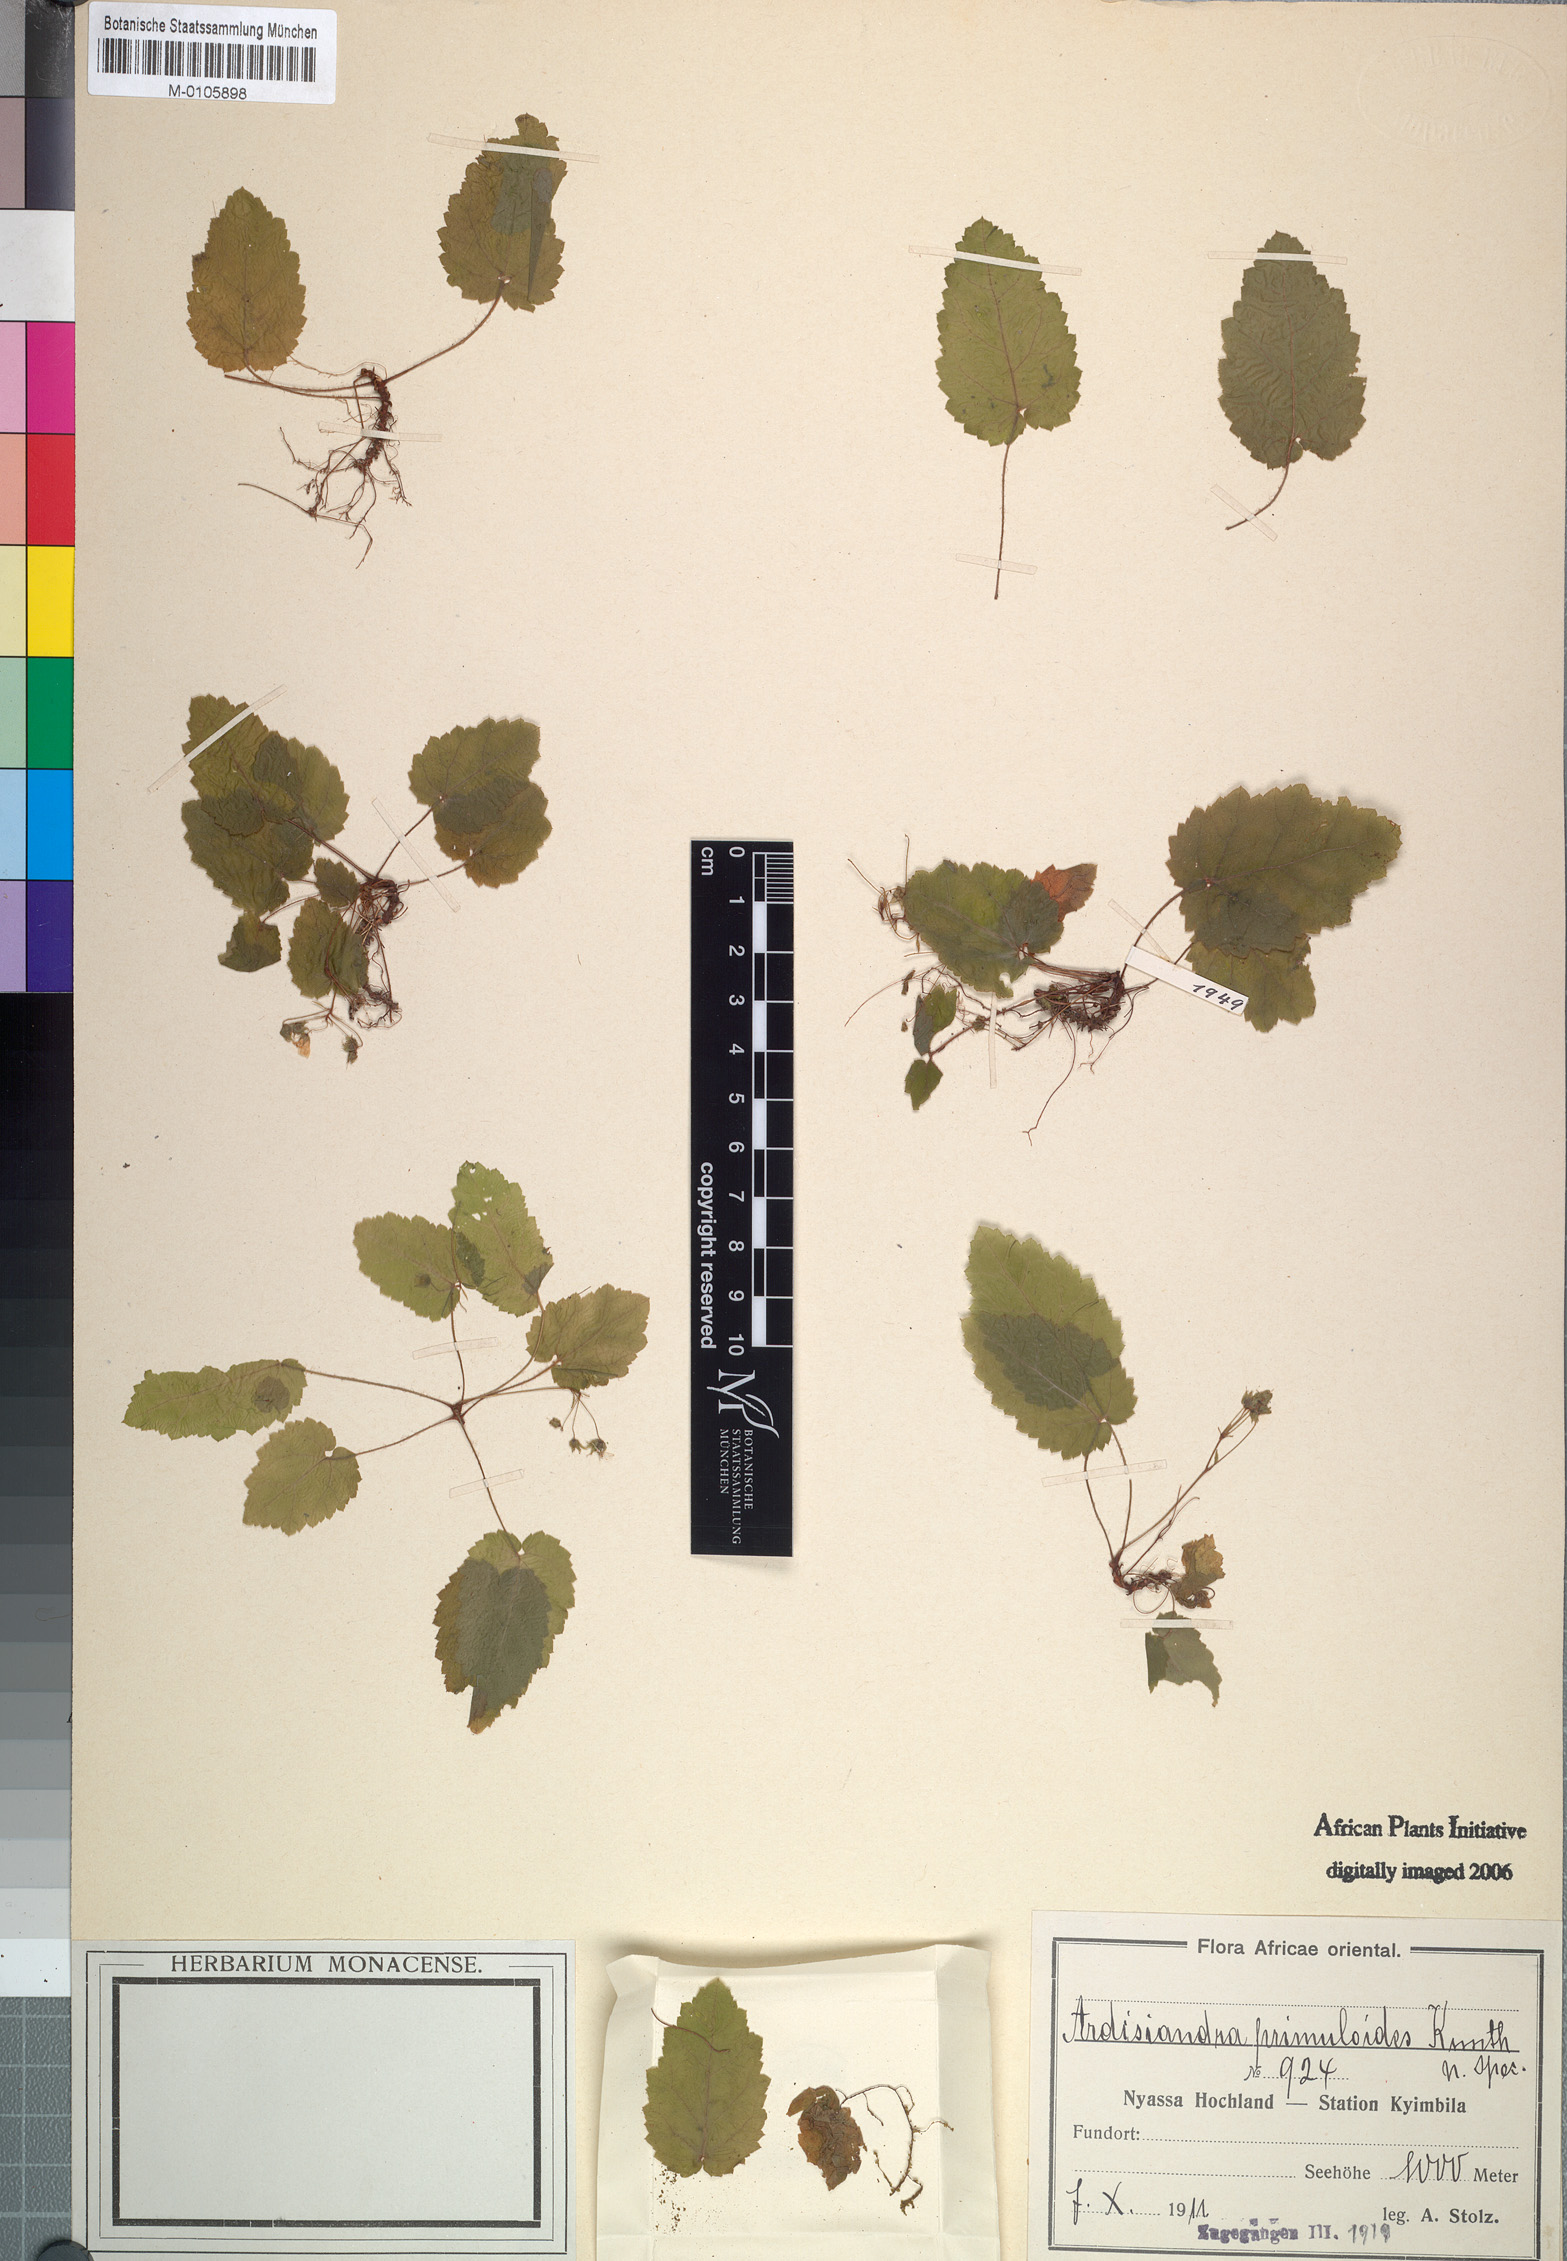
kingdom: Plantae
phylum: Tracheophyta
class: Magnoliopsida
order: Ericales
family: Primulaceae
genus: Ardisiandra
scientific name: Ardisiandra primuloides
